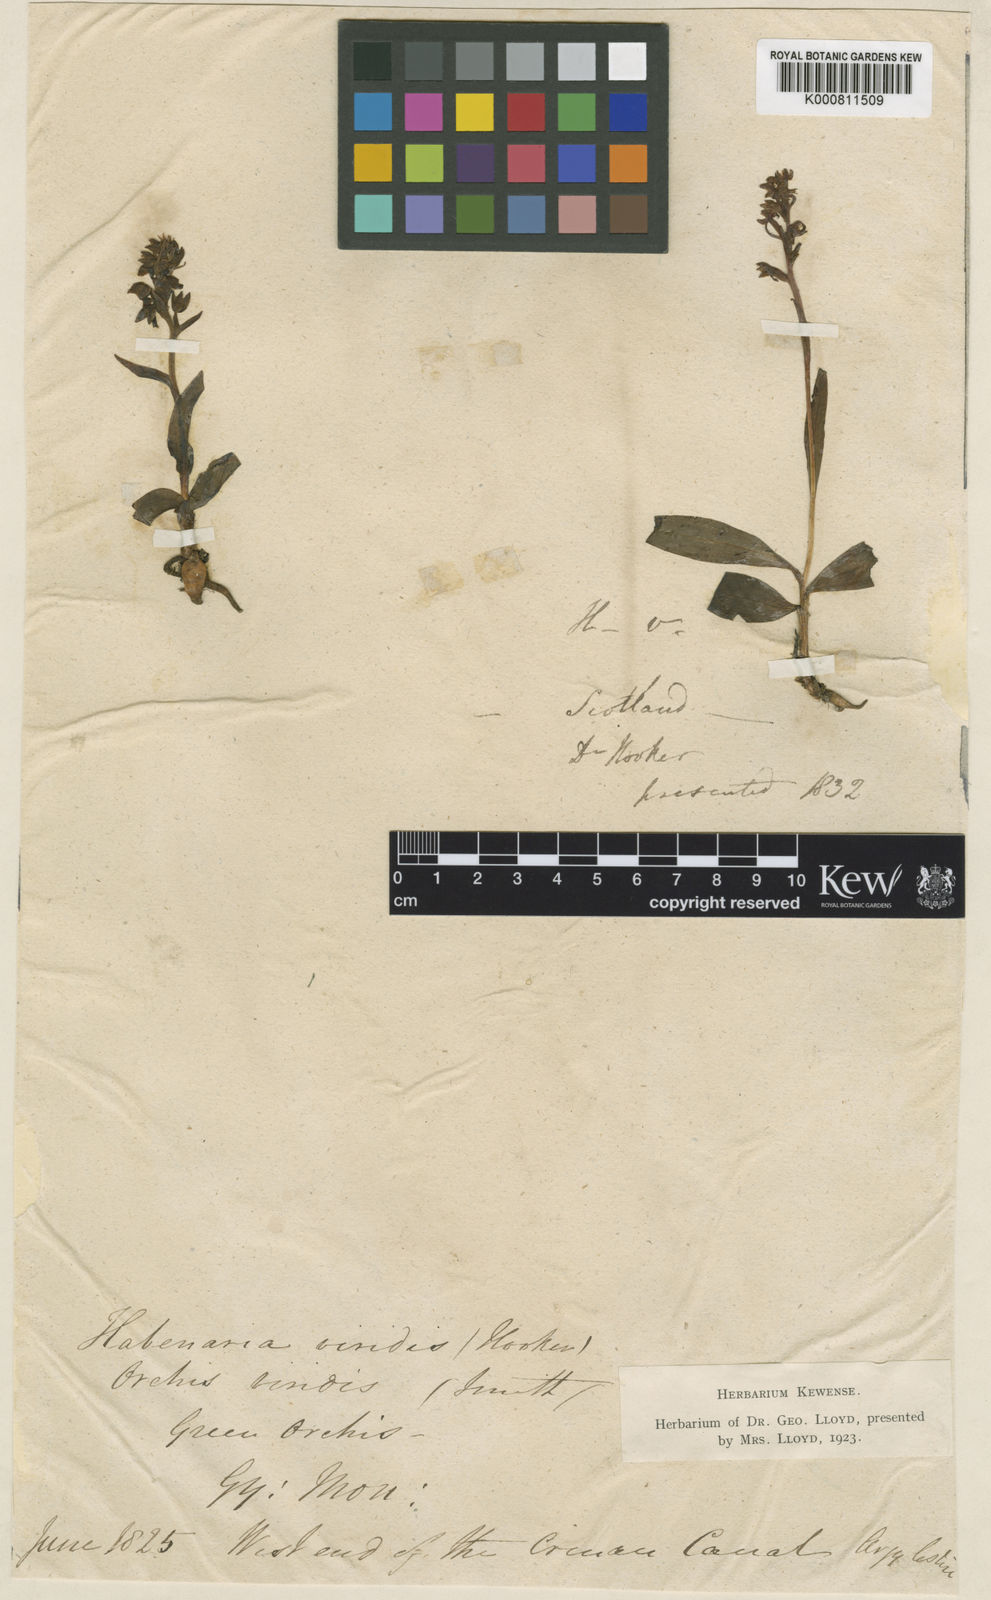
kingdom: Plantae
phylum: Tracheophyta
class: Liliopsida
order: Asparagales
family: Orchidaceae
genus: Dactylorhiza
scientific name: Dactylorhiza viridis
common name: Longbract frog orchid
